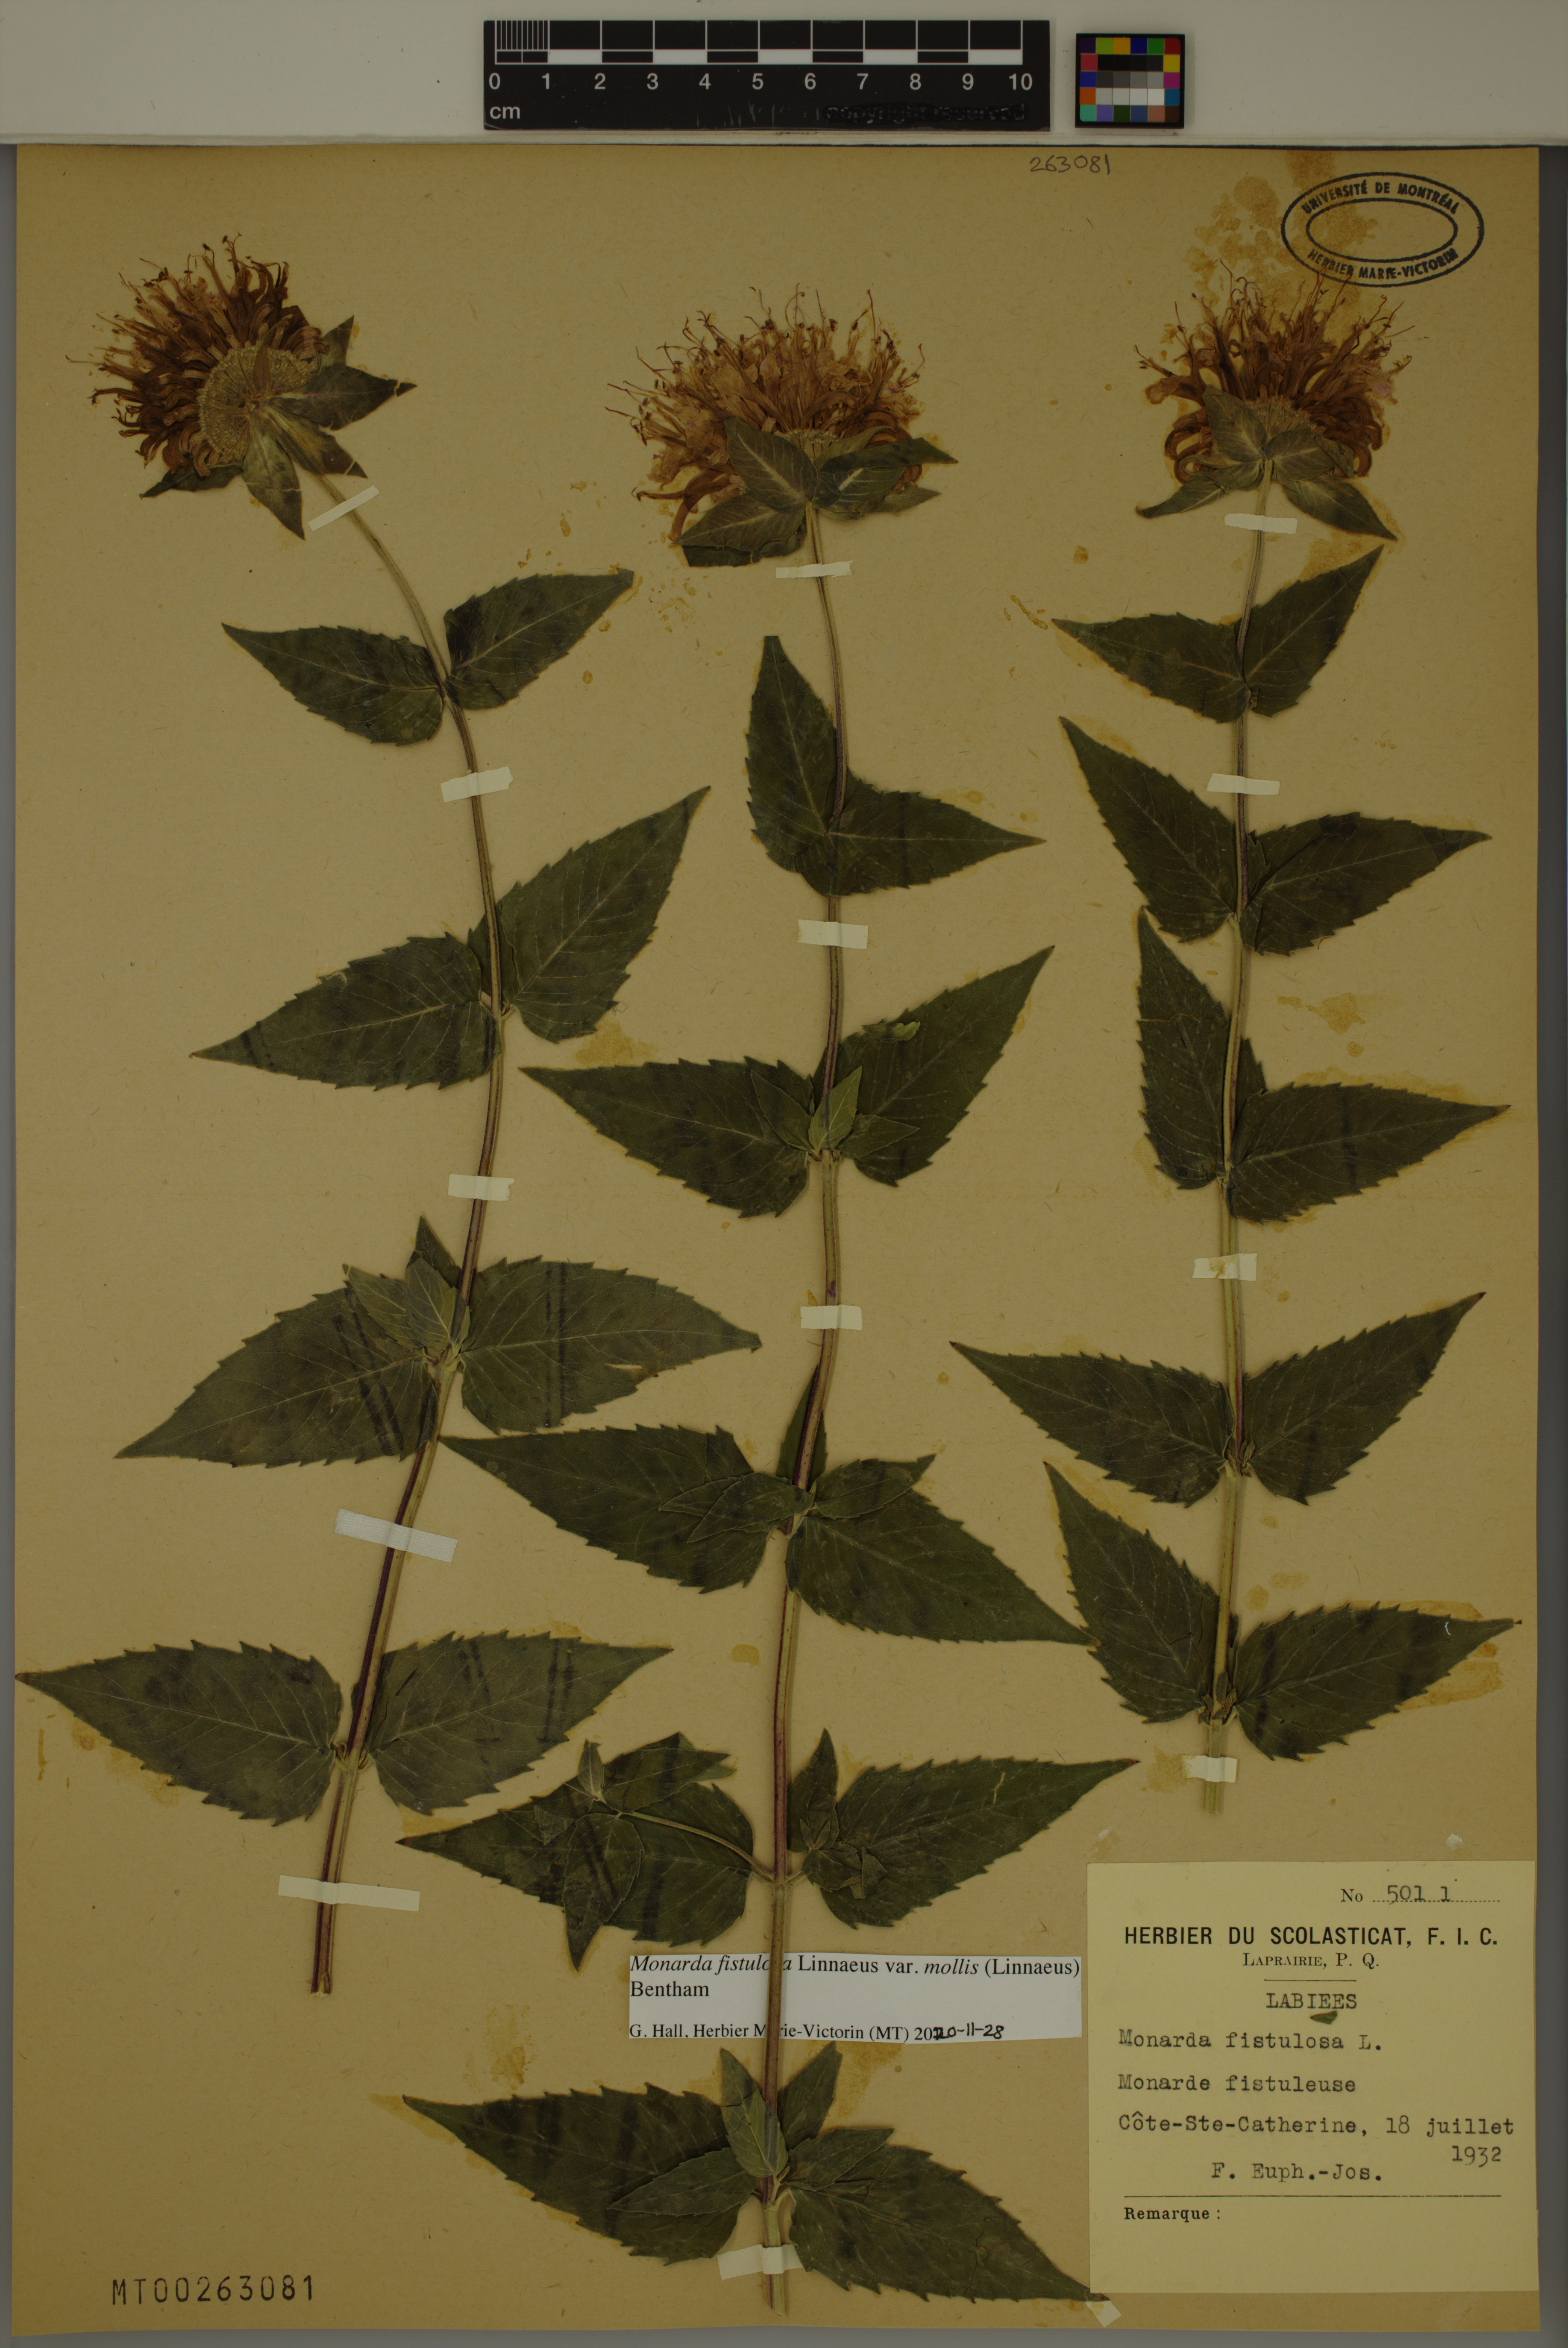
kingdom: Plantae
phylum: Tracheophyta
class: Magnoliopsida
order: Lamiales
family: Lamiaceae
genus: Monarda
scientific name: Monarda fistulosa
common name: Purple beebalm
